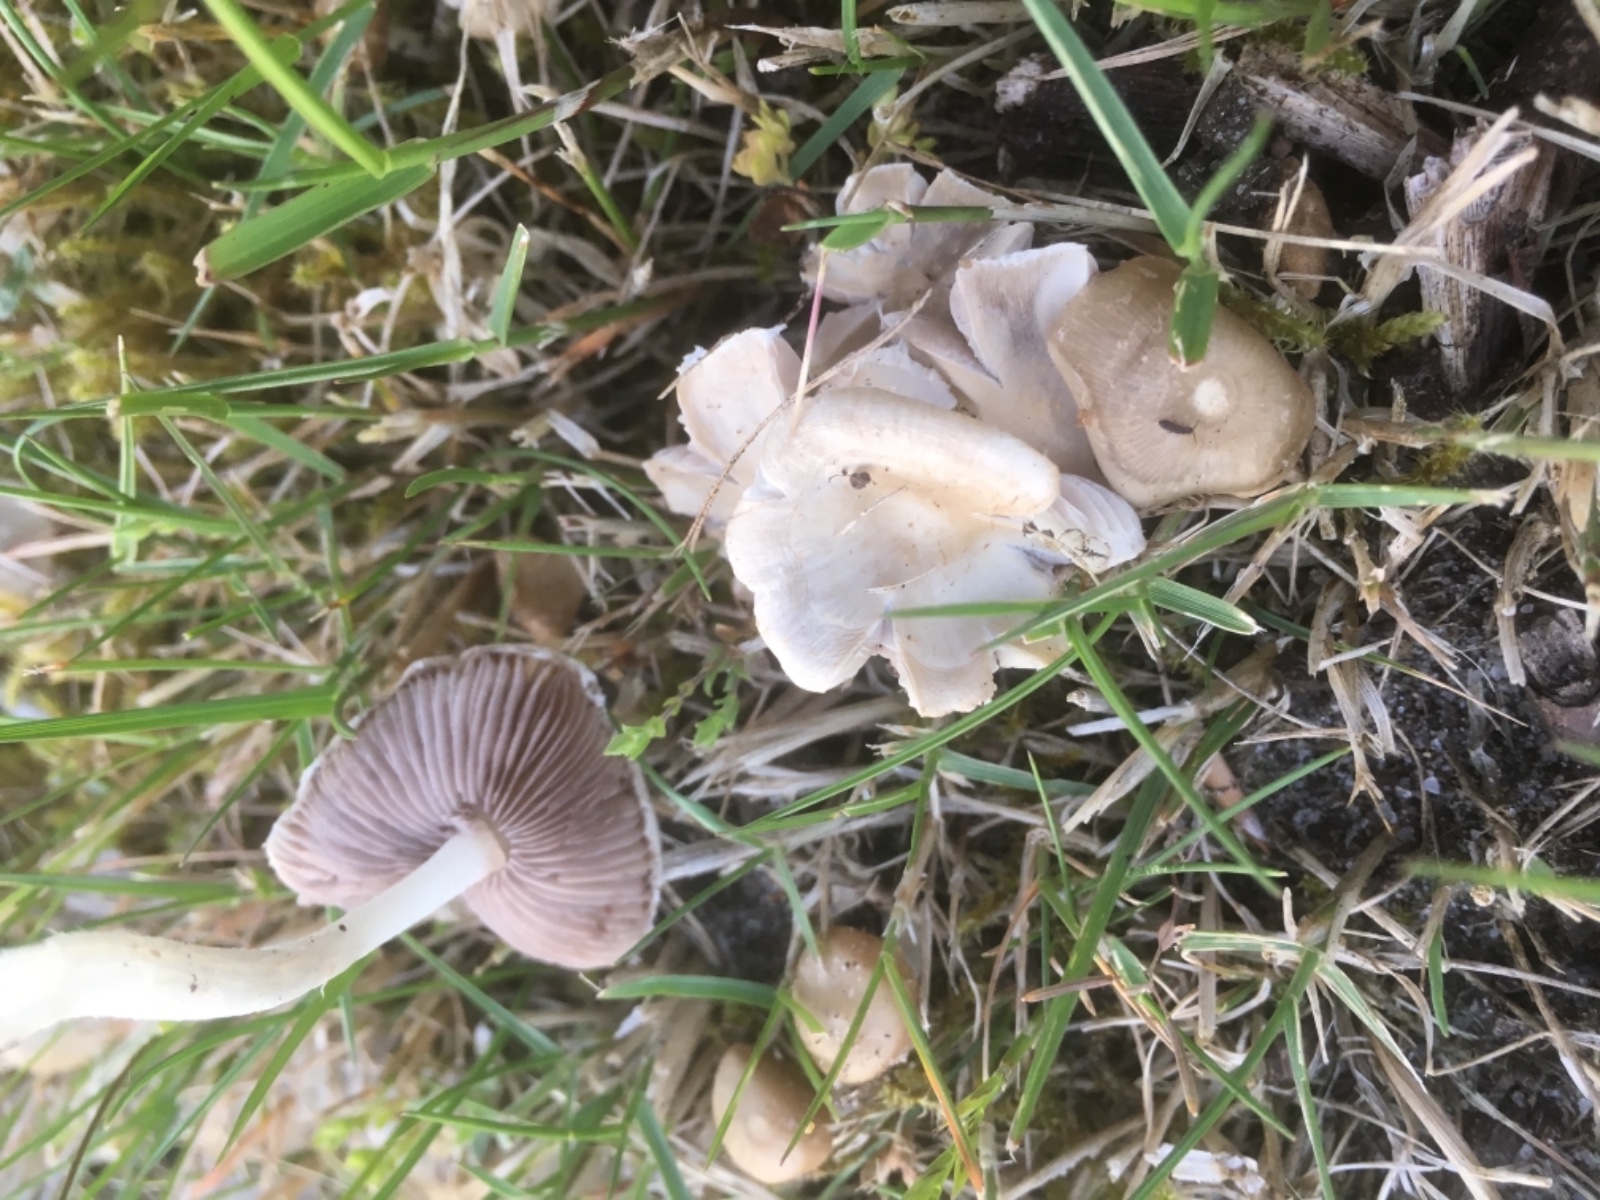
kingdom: Fungi
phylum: Basidiomycota
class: Agaricomycetes
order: Agaricales
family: Psathyrellaceae
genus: Candolleomyces
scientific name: Candolleomyces candolleanus
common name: Candolles mørkhat
